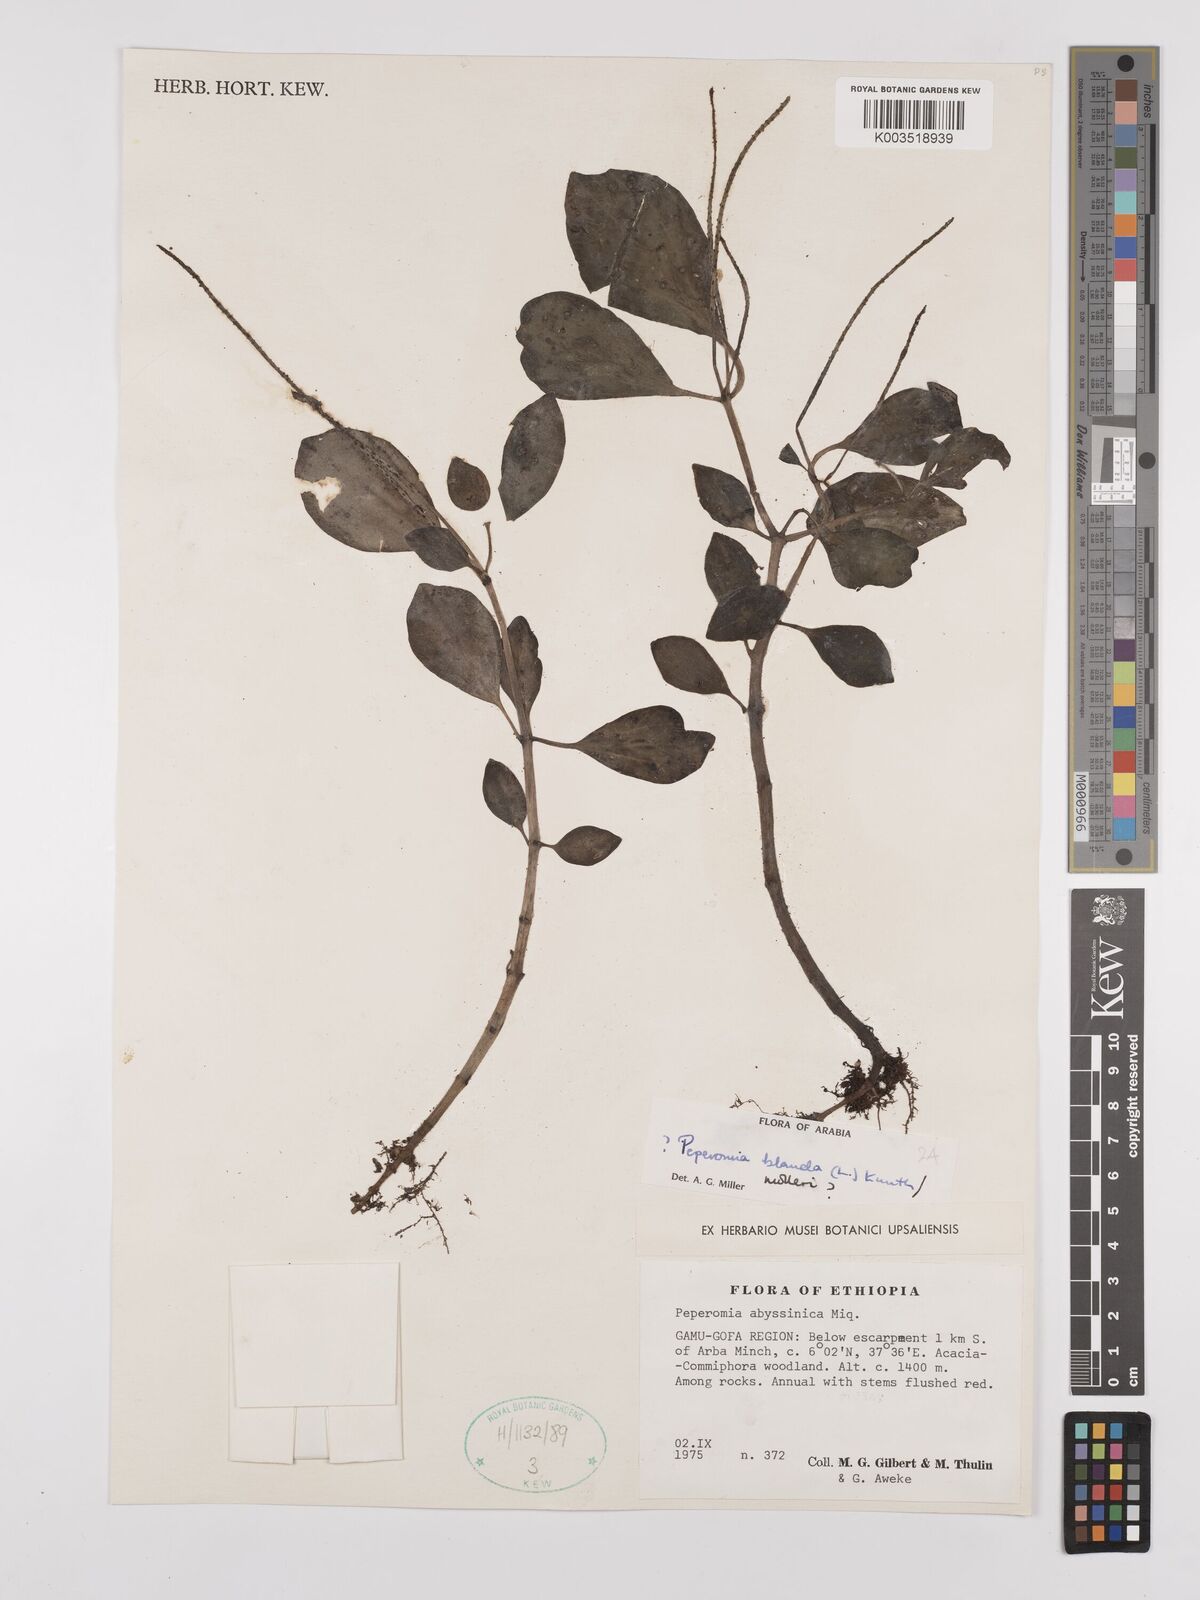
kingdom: Plantae
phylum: Tracheophyta
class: Magnoliopsida
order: Piperales
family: Piperaceae
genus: Peperomia
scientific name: Peperomia blanda
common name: Arid-land peperomia
